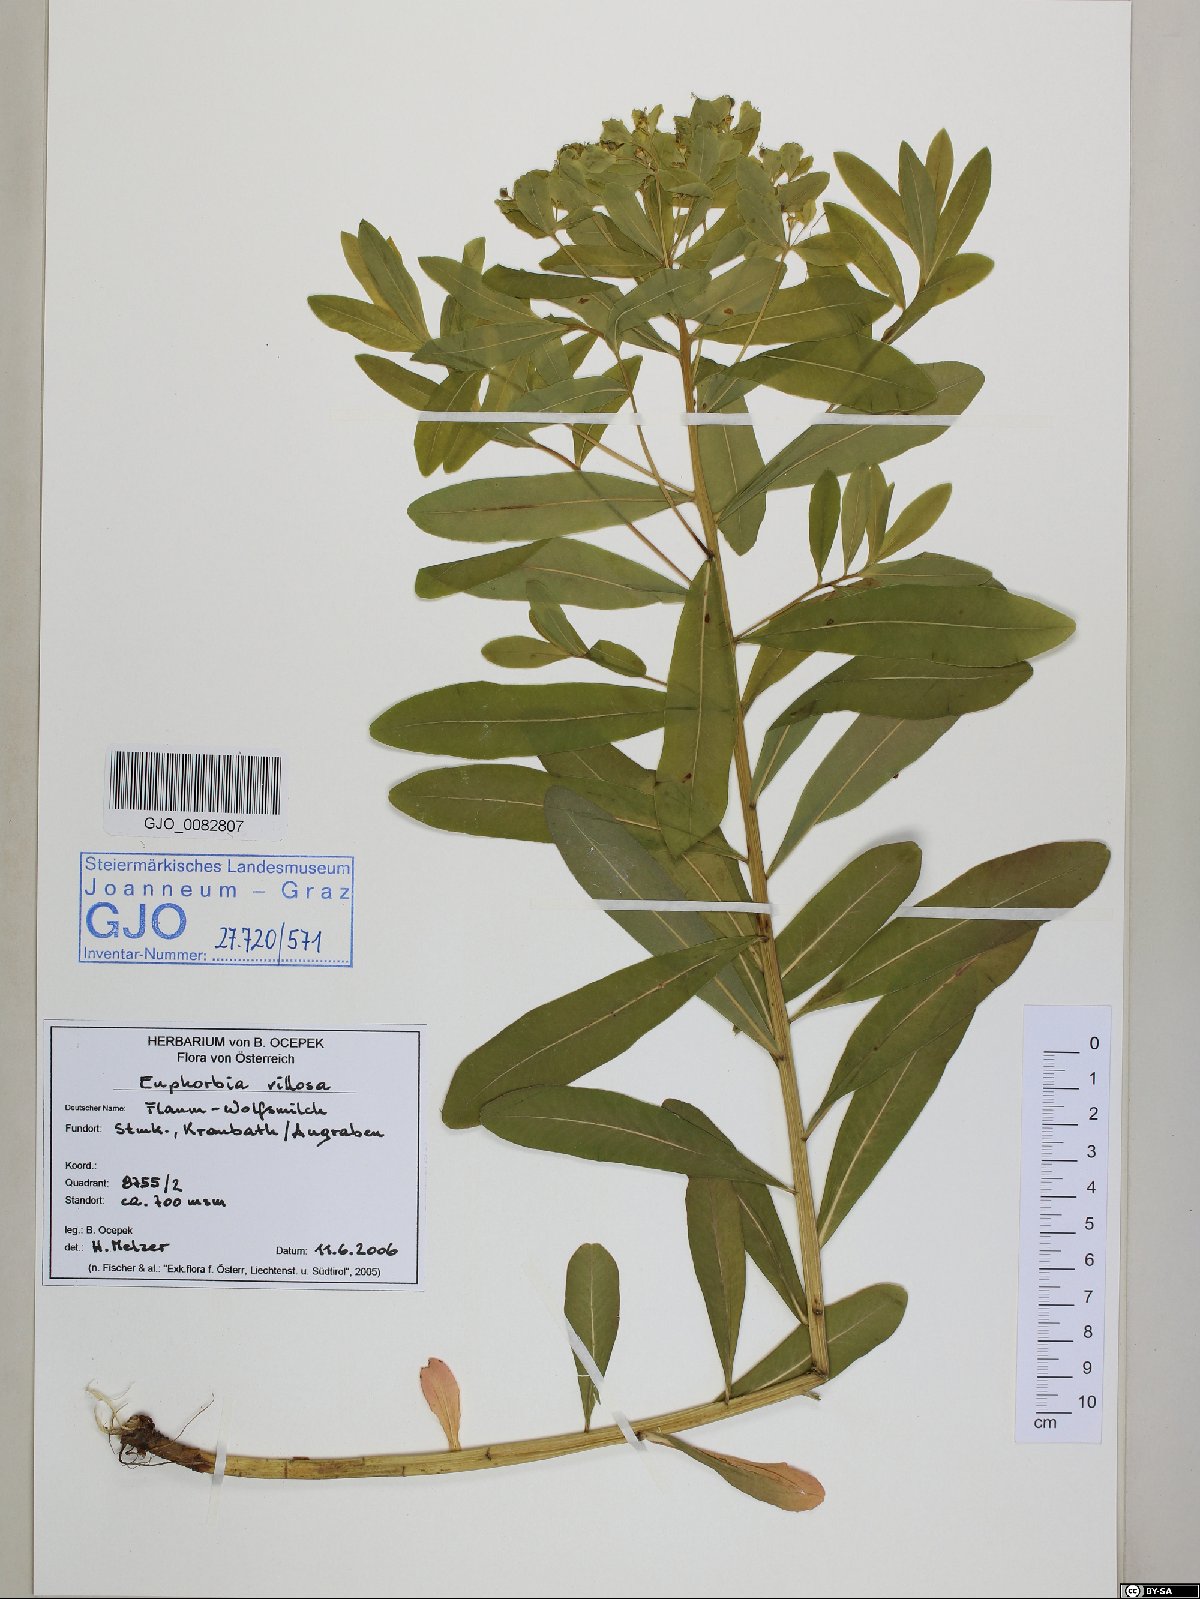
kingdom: Plantae
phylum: Tracheophyta
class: Magnoliopsida
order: Malpighiales
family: Euphorbiaceae
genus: Euphorbia
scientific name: Euphorbia illirica
